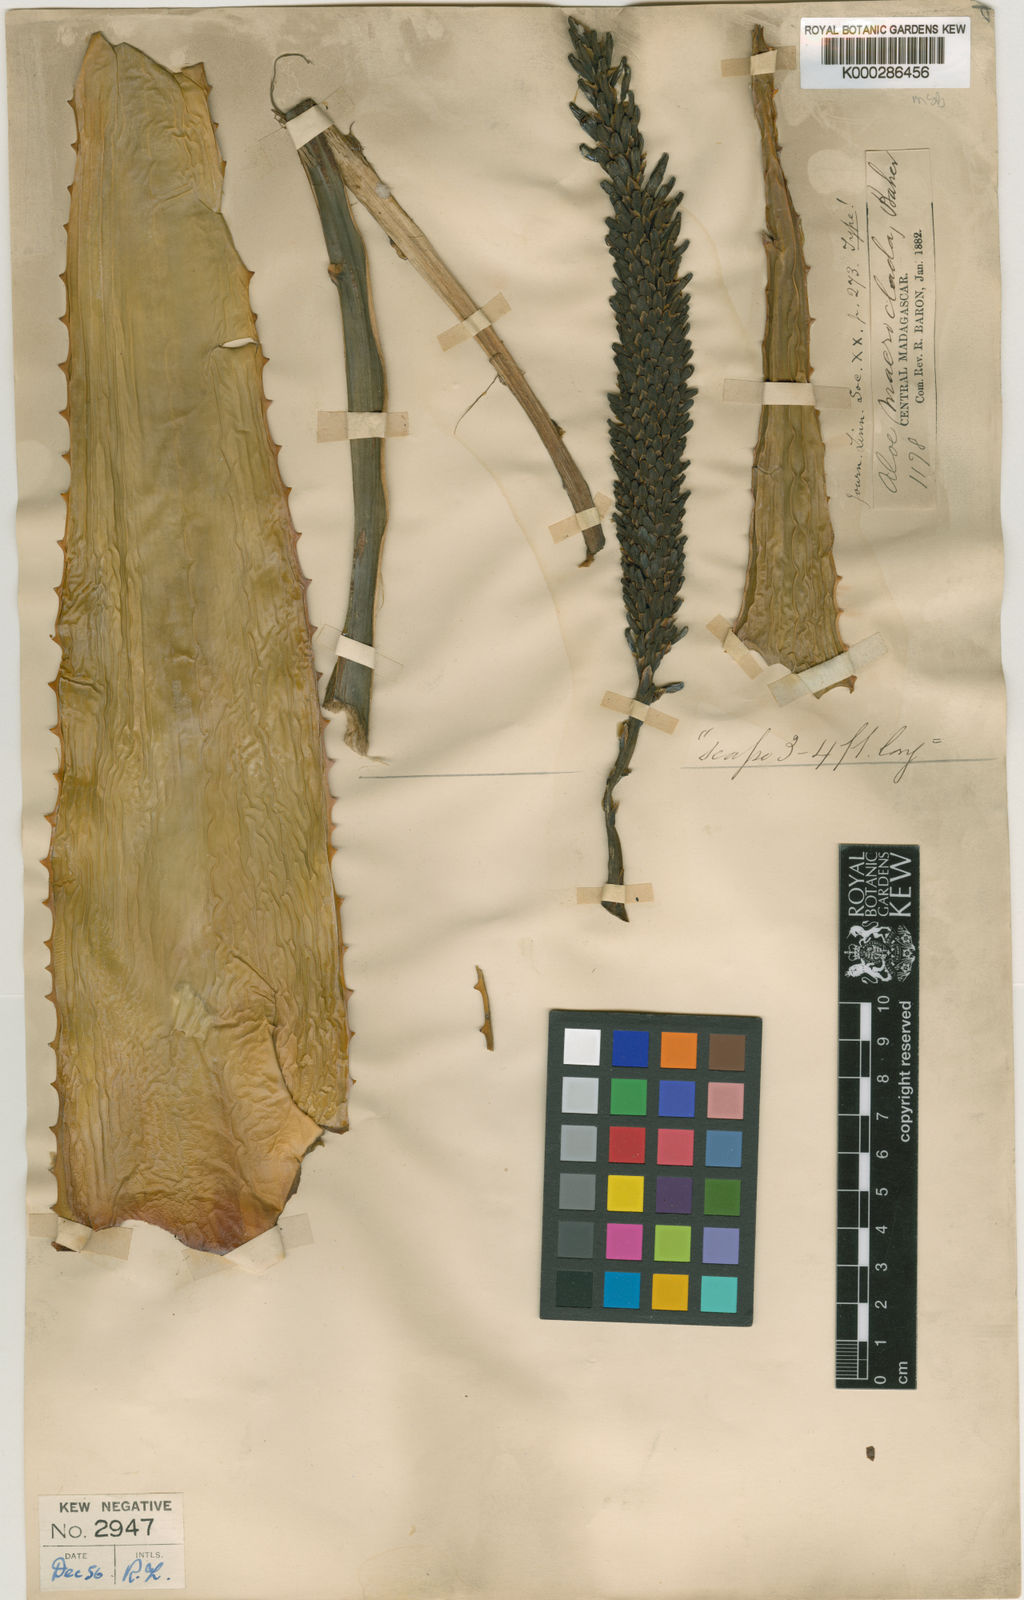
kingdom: Plantae
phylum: Tracheophyta
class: Liliopsida
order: Asparagales
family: Asphodelaceae
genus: Aloe
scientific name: Aloe macroclada
